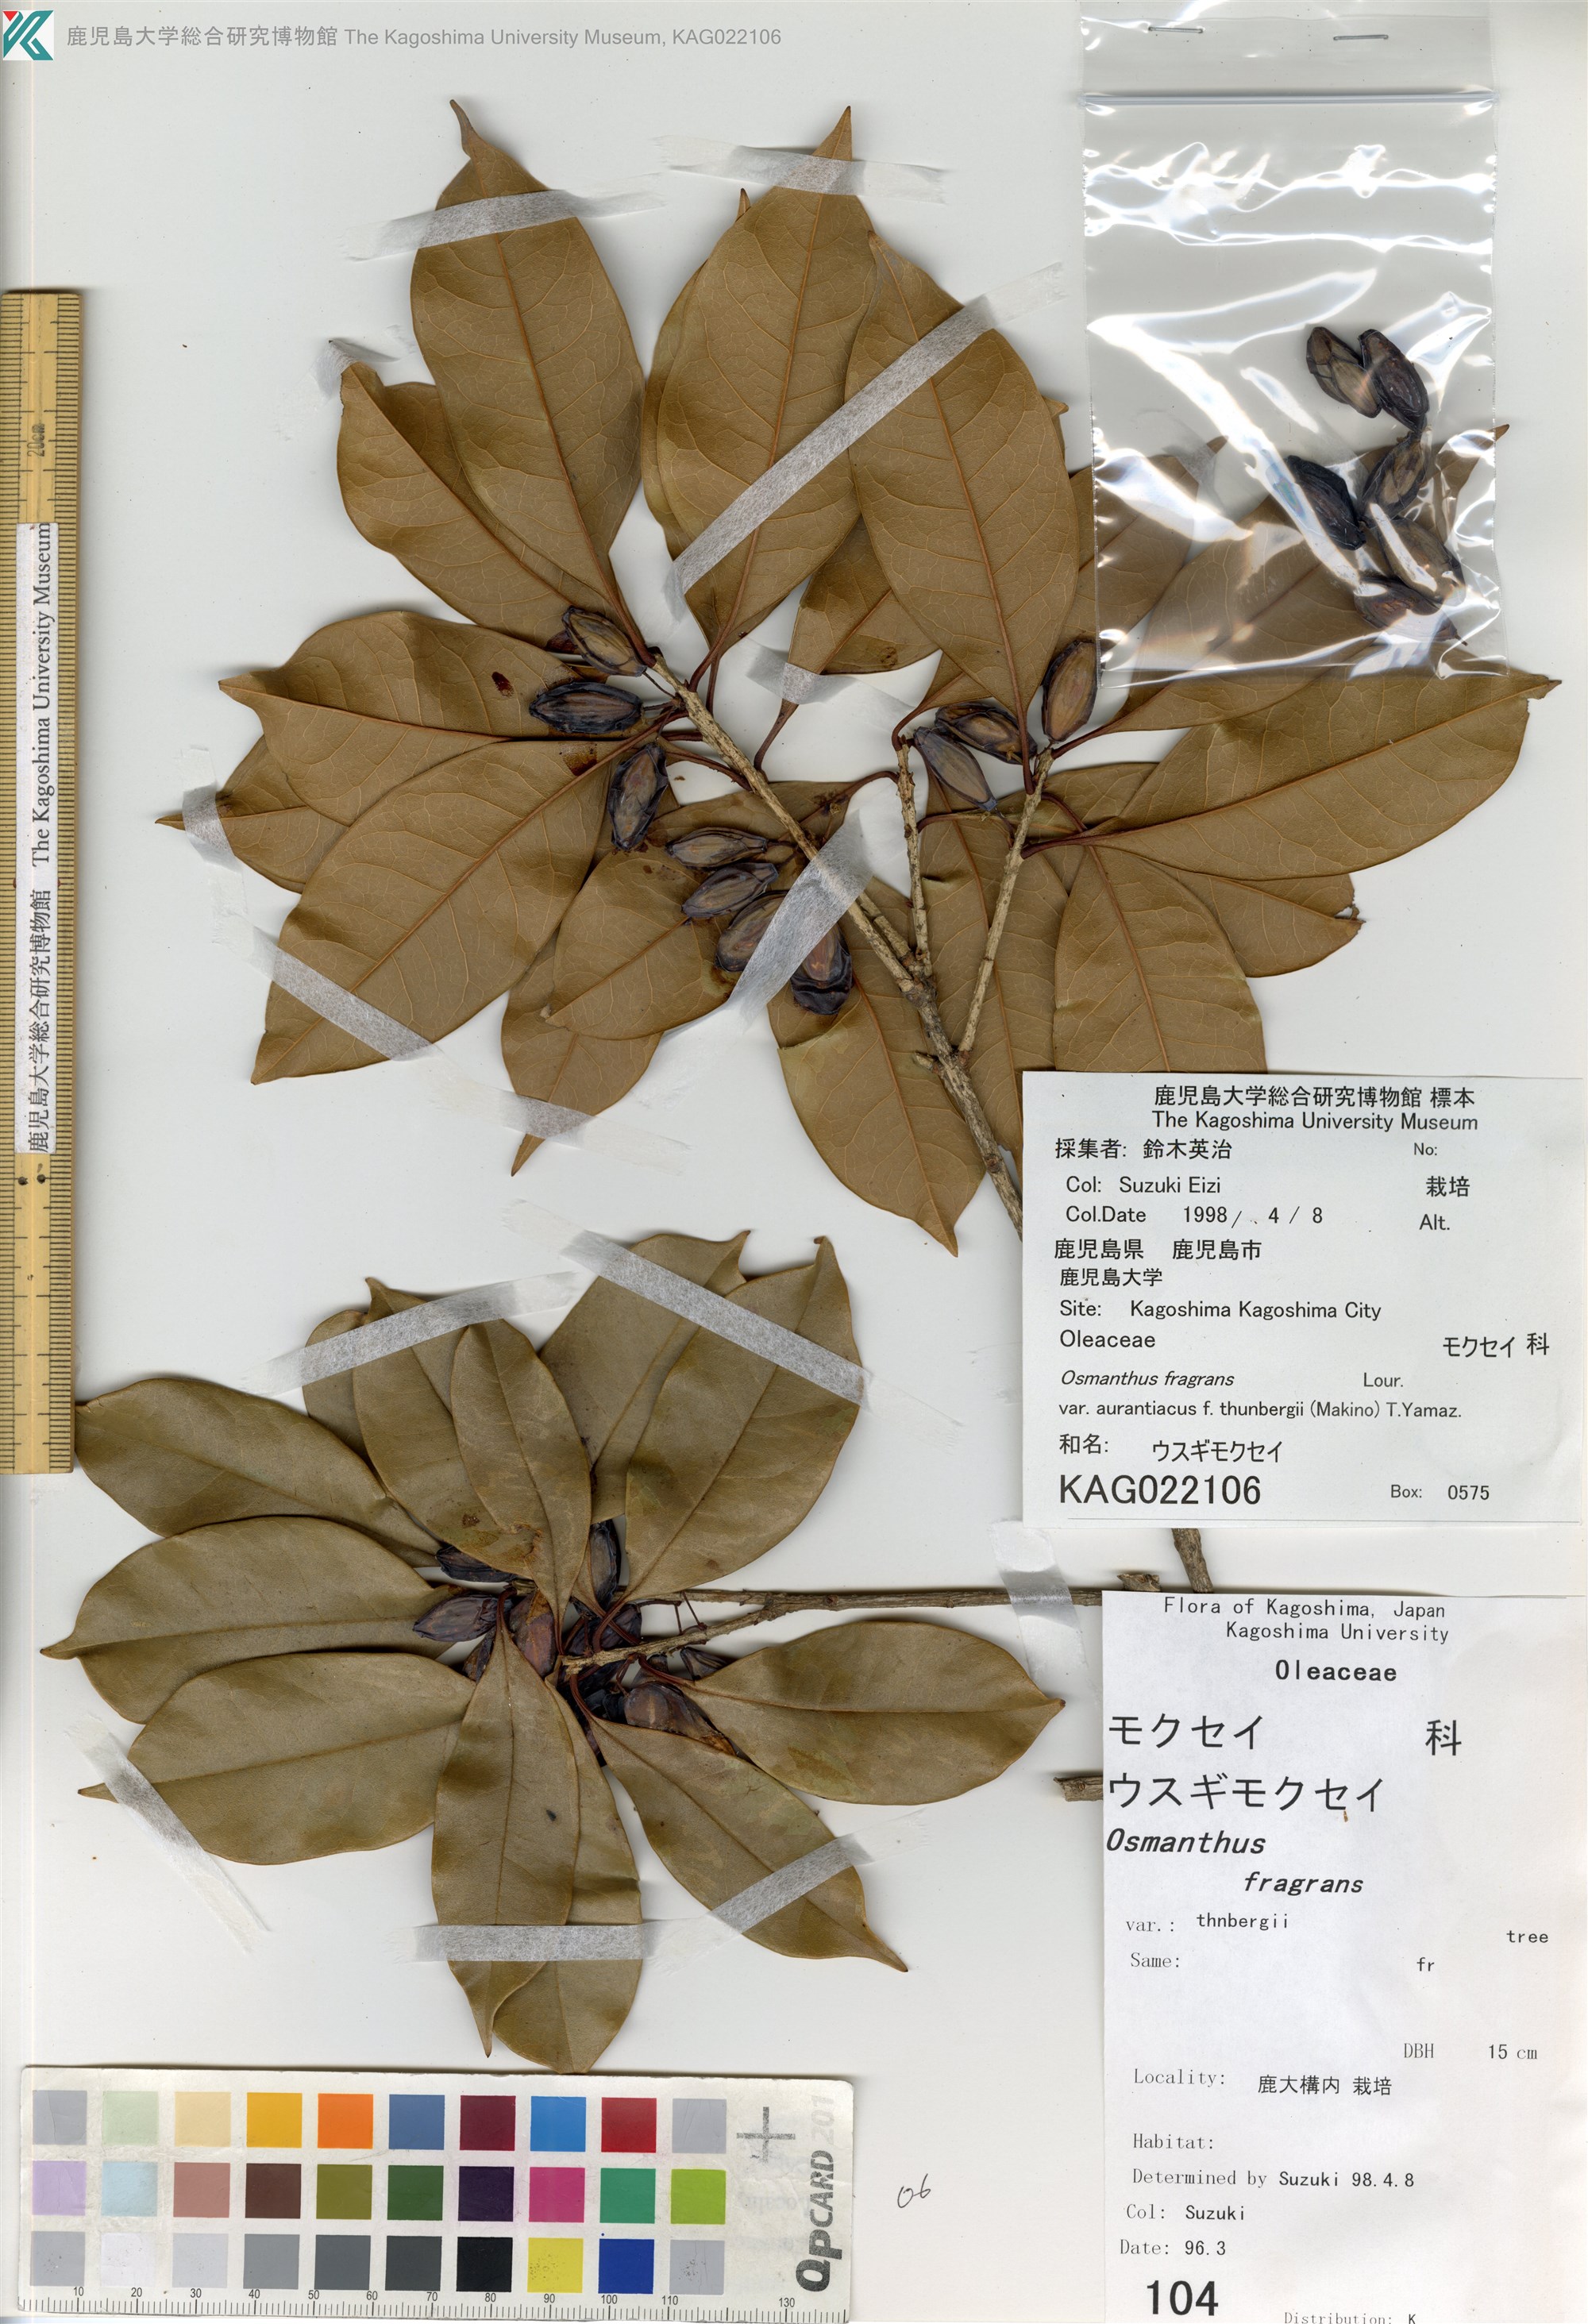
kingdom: Plantae
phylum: Tracheophyta
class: Magnoliopsida
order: Lamiales
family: Oleaceae
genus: Osmanthus
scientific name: Osmanthus fragrans
